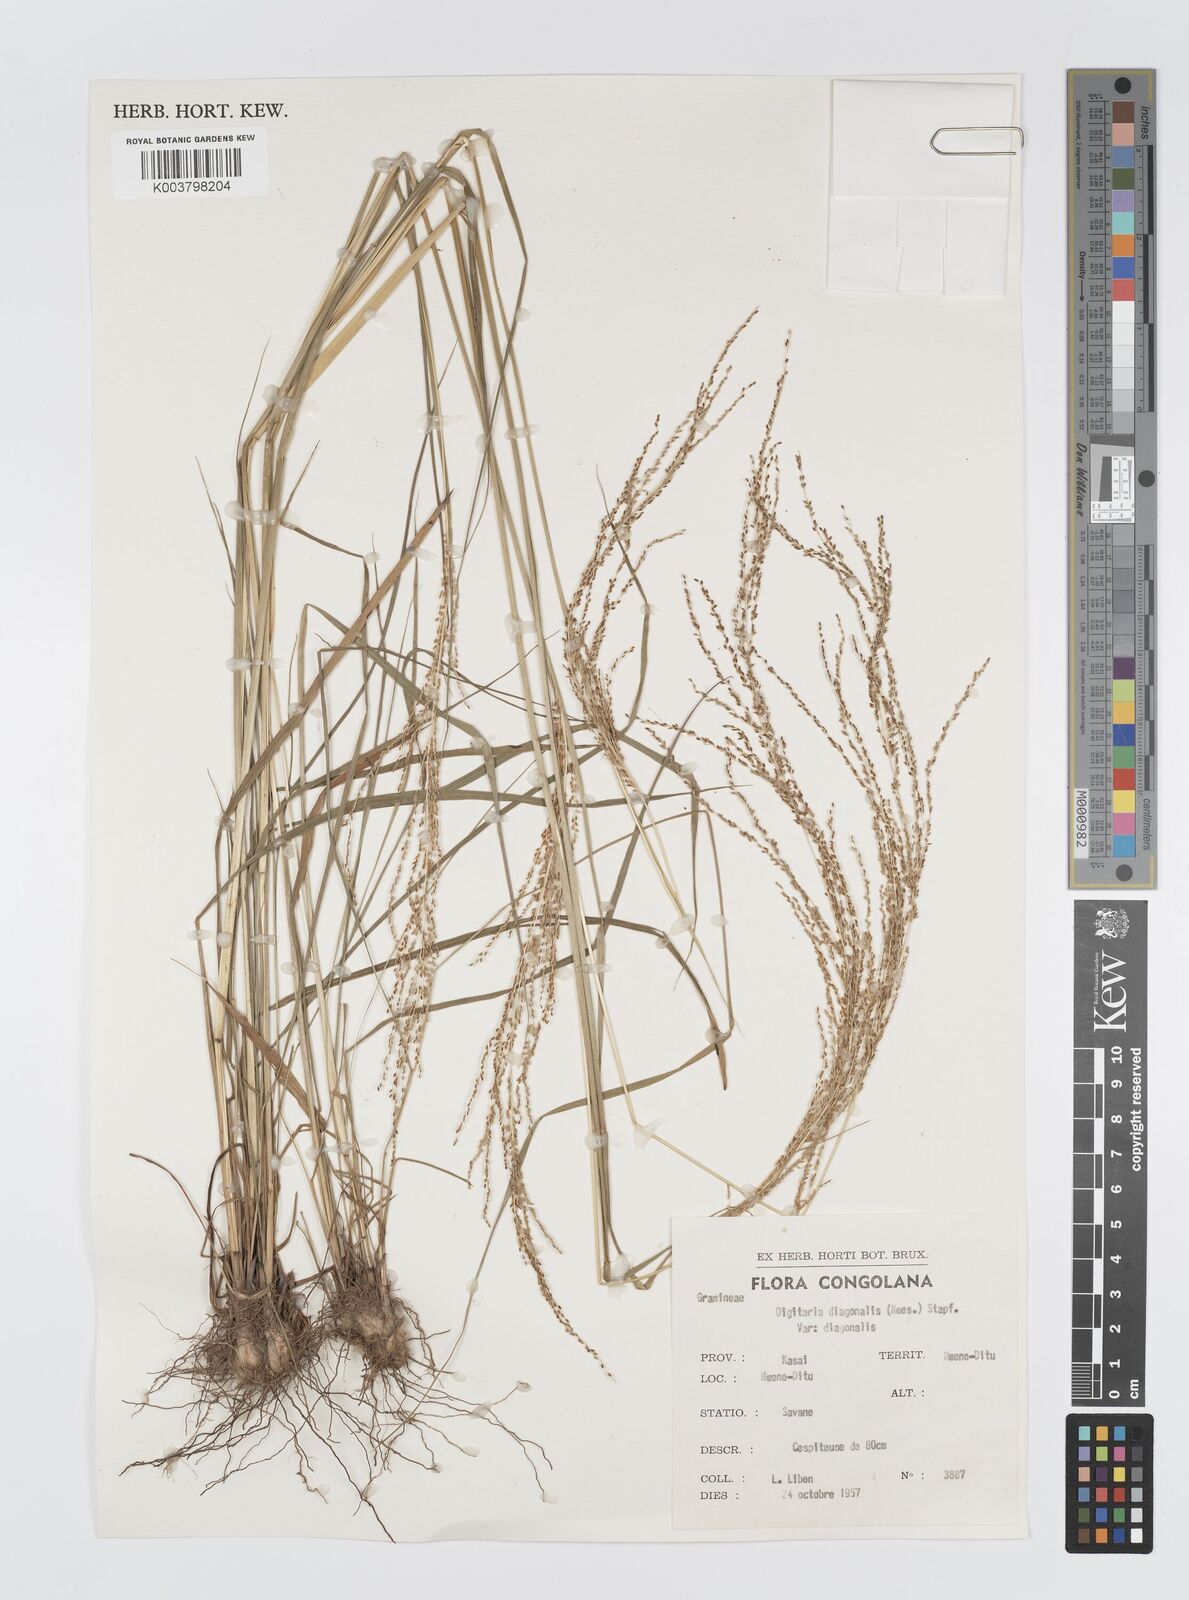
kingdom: Plantae
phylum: Tracheophyta
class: Liliopsida
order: Poales
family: Poaceae
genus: Digitaria
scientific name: Digitaria diagonalis
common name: Brown-seed finger grass
